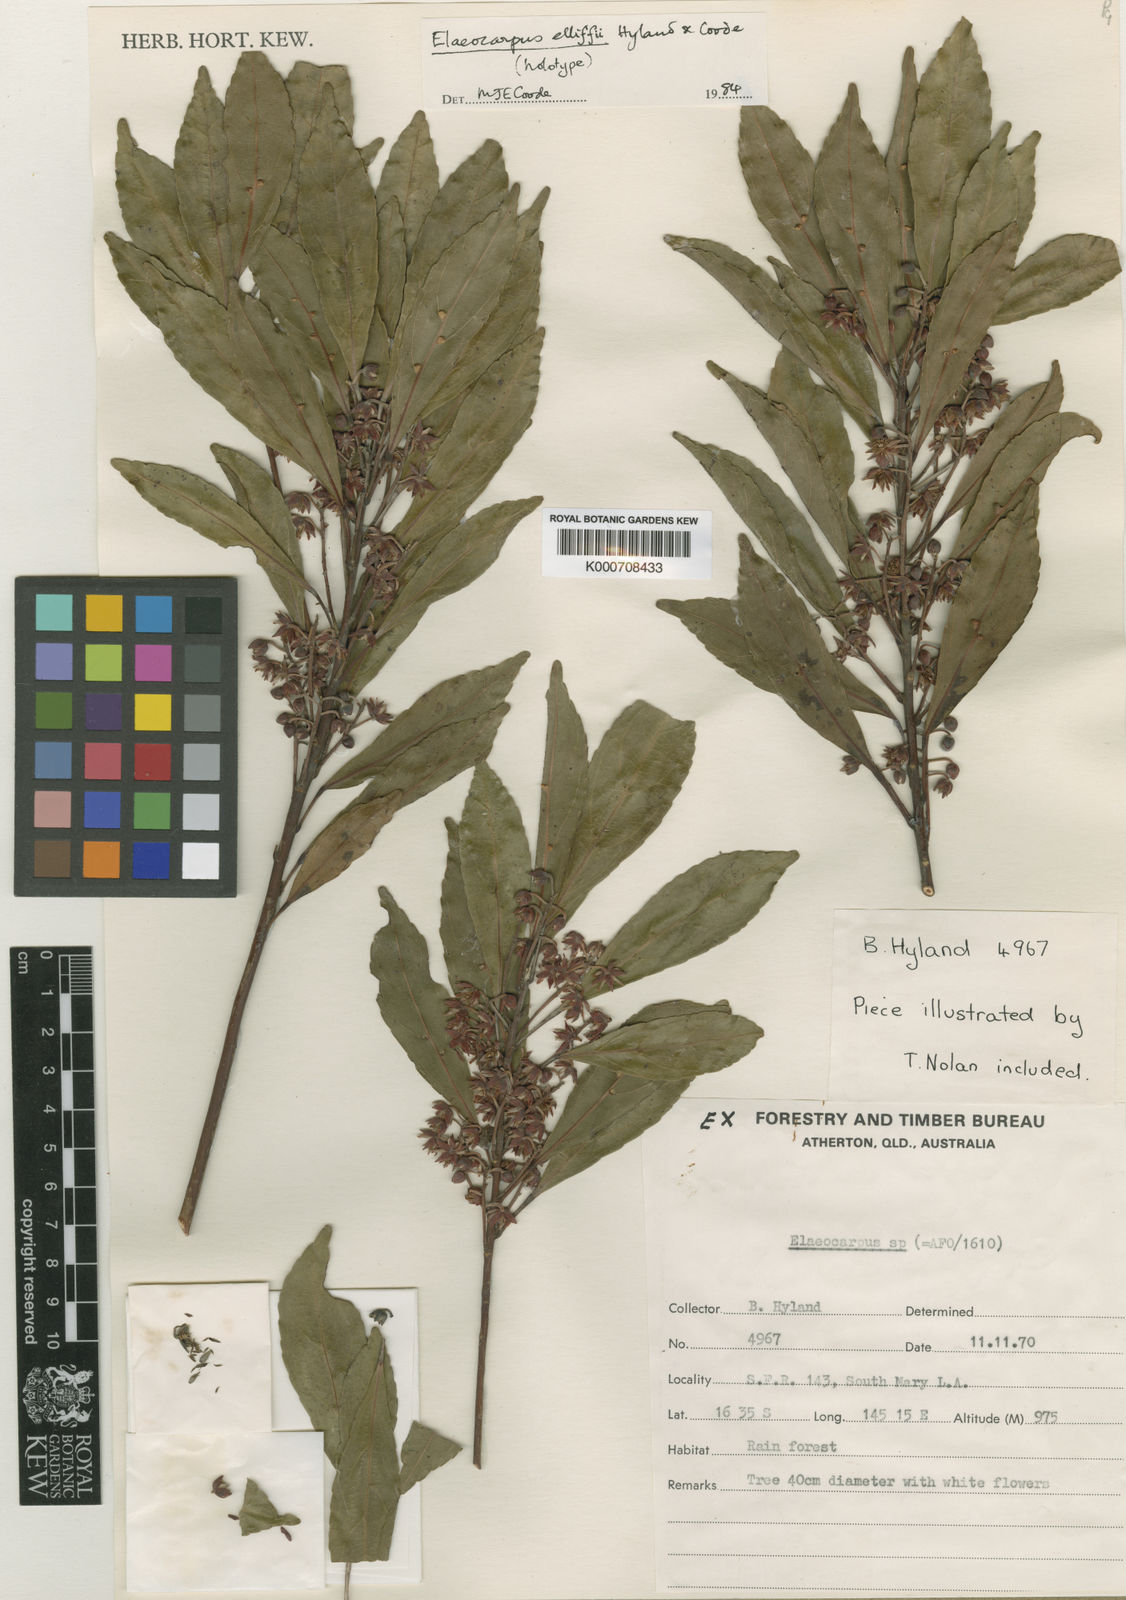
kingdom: Plantae
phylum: Tracheophyta
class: Magnoliopsida
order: Oxalidales
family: Elaeocarpaceae
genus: Elaeocarpus
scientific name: Elaeocarpus elliffii
